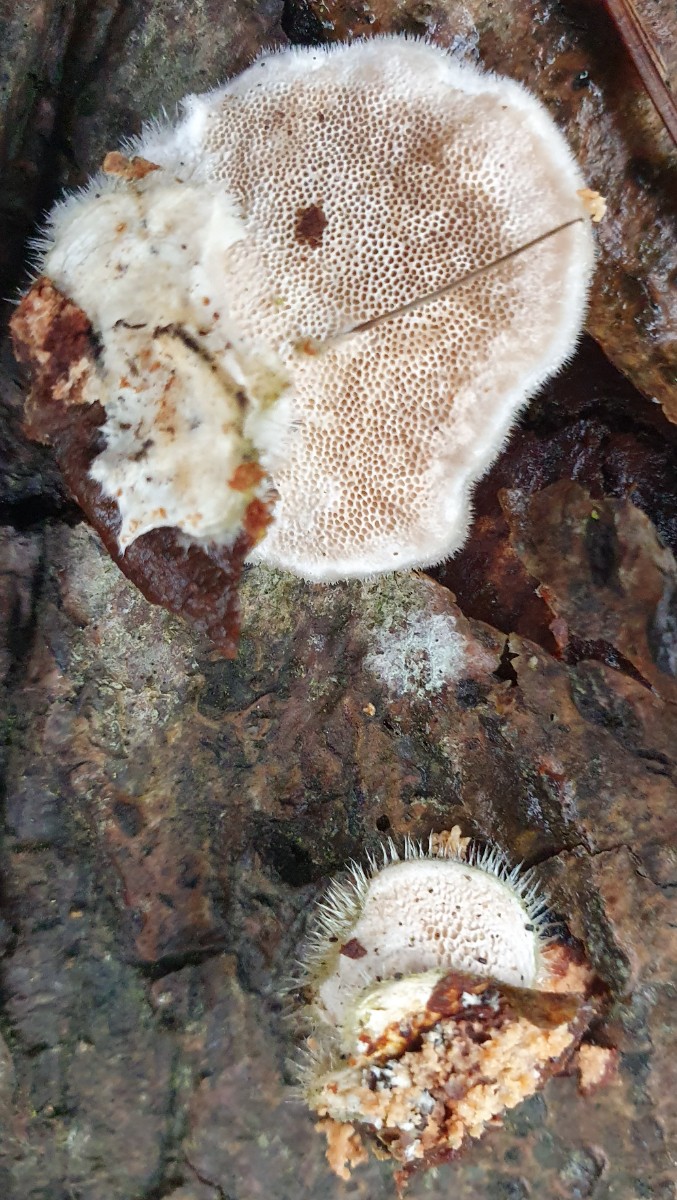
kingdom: Fungi
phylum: Basidiomycota
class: Agaricomycetes
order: Polyporales
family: Polyporaceae
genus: Trametes
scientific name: Trametes hirsuta
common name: håret læderporesvamp
